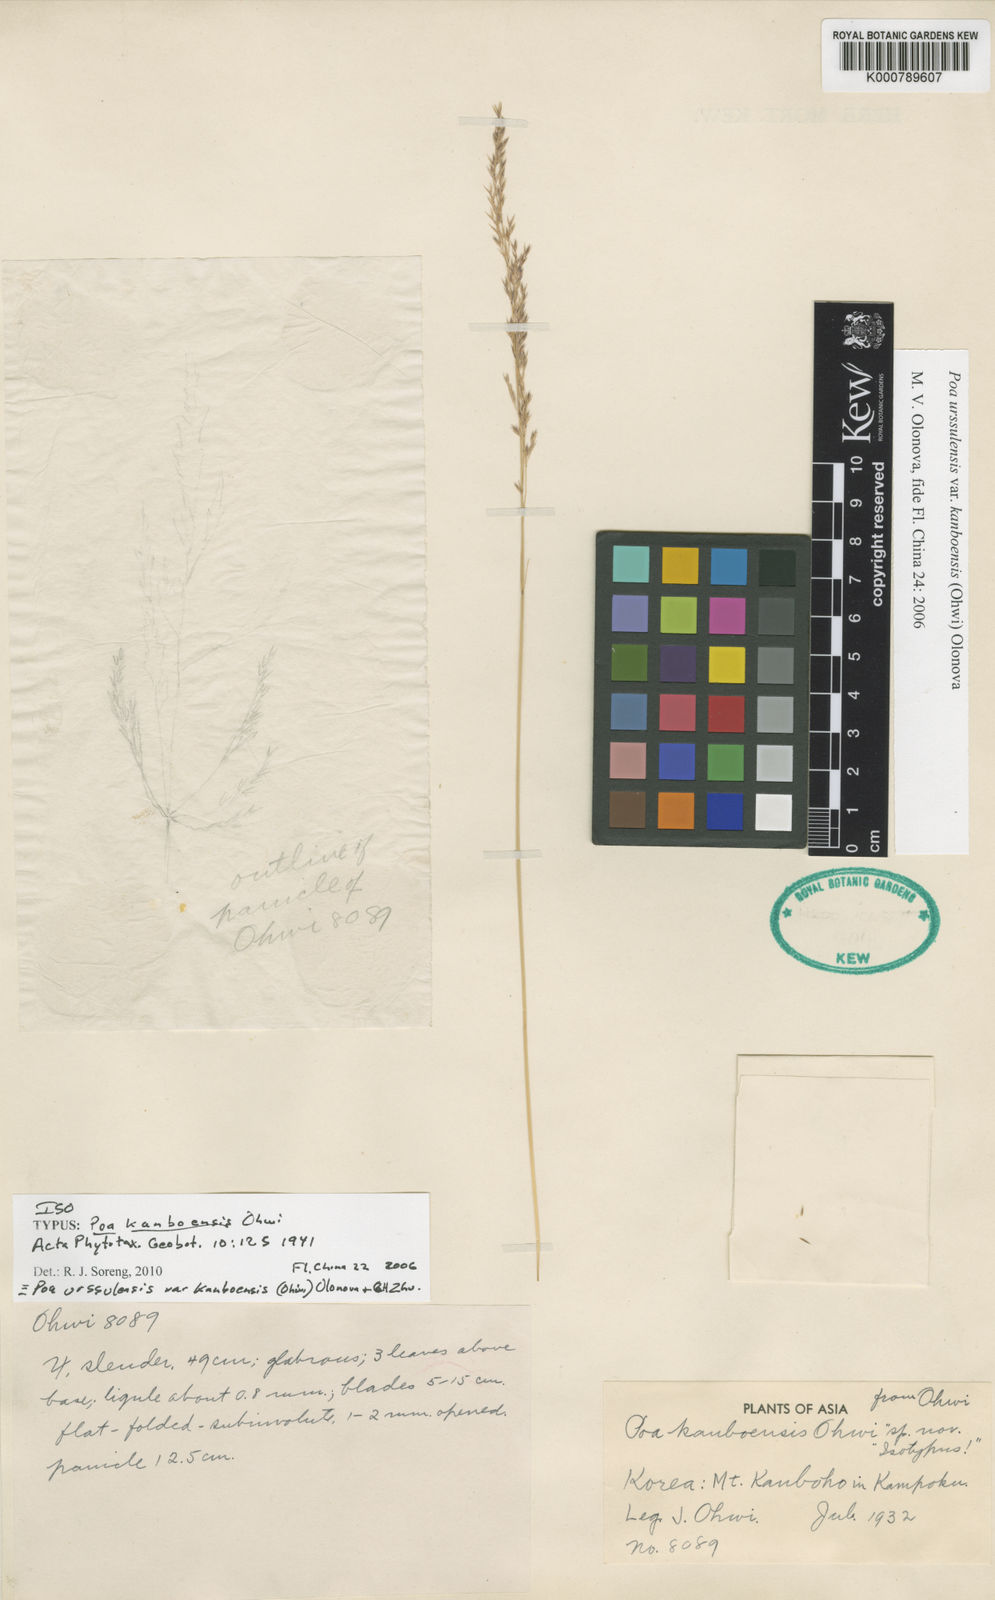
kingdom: Plantae
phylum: Tracheophyta
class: Liliopsida
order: Poales
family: Poaceae
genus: Poa
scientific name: Poa urssulensis
